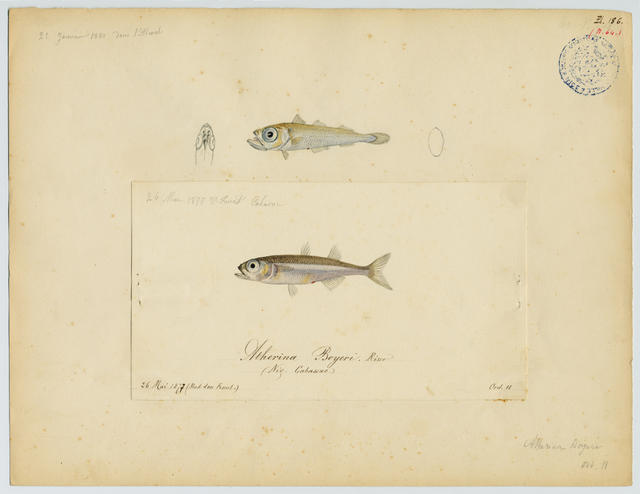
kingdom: Animalia
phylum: Chordata
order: Atheriniformes
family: Atherinidae
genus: Atherina
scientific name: Atherina boyeri
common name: Big-scale sand smelt
